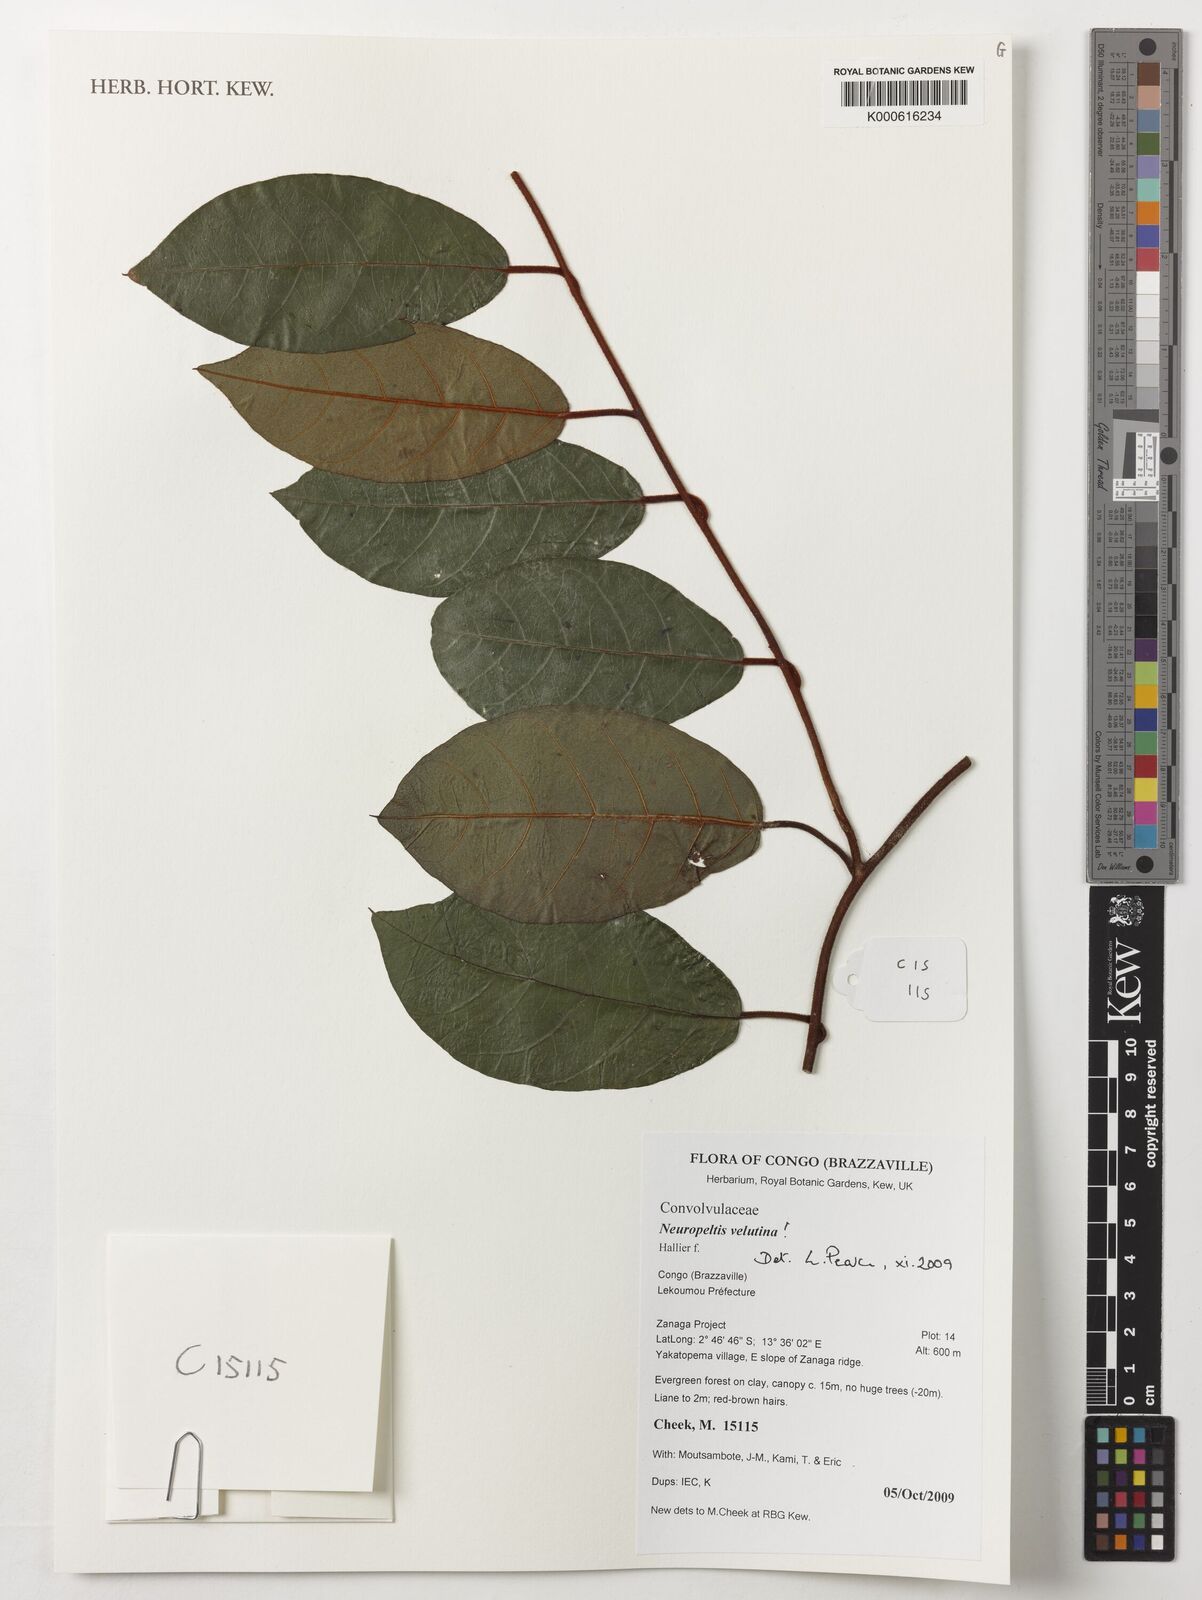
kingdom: Plantae
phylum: Tracheophyta
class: Magnoliopsida
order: Solanales
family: Convolvulaceae
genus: Neuropeltis
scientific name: Neuropeltis velutina
